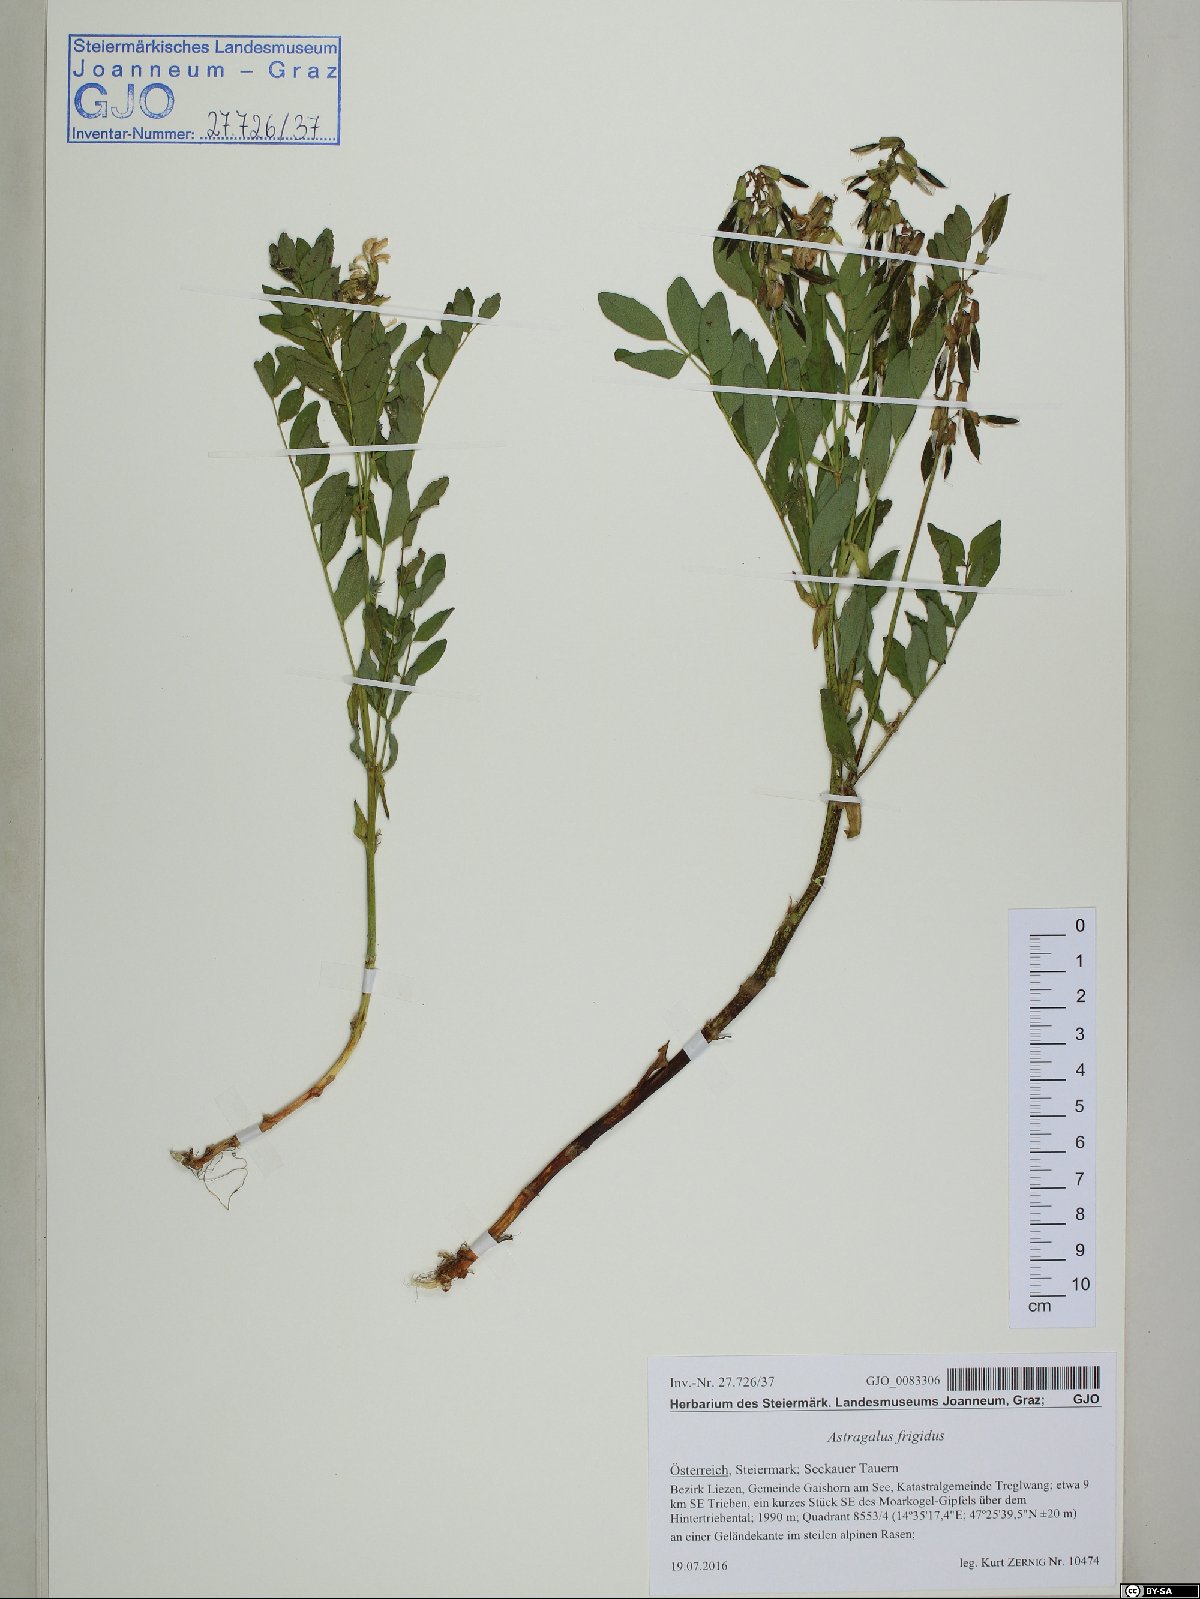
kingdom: Plantae
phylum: Tracheophyta
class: Magnoliopsida
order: Fabales
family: Fabaceae
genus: Astragalus
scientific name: Astragalus frigidus
